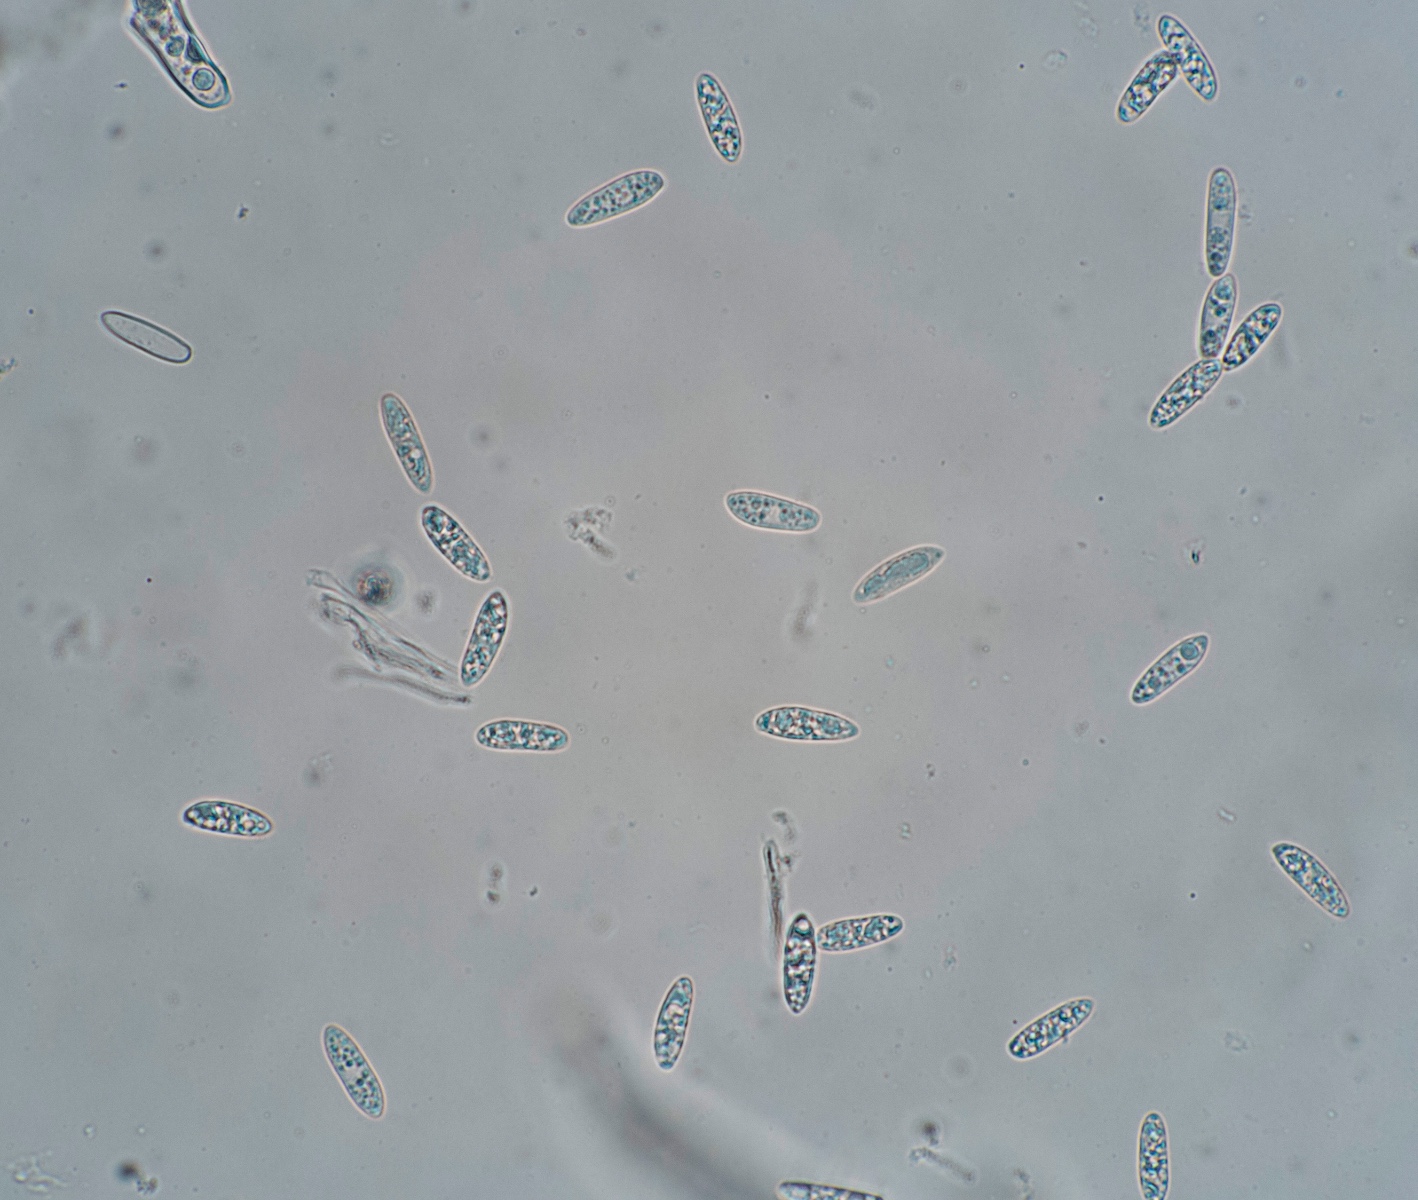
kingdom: Fungi
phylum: Ascomycota
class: Leotiomycetes
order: Helotiales
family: Helotiaceae
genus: Hymenoscyphus
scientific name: Hymenoscyphus
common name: stilkskive
